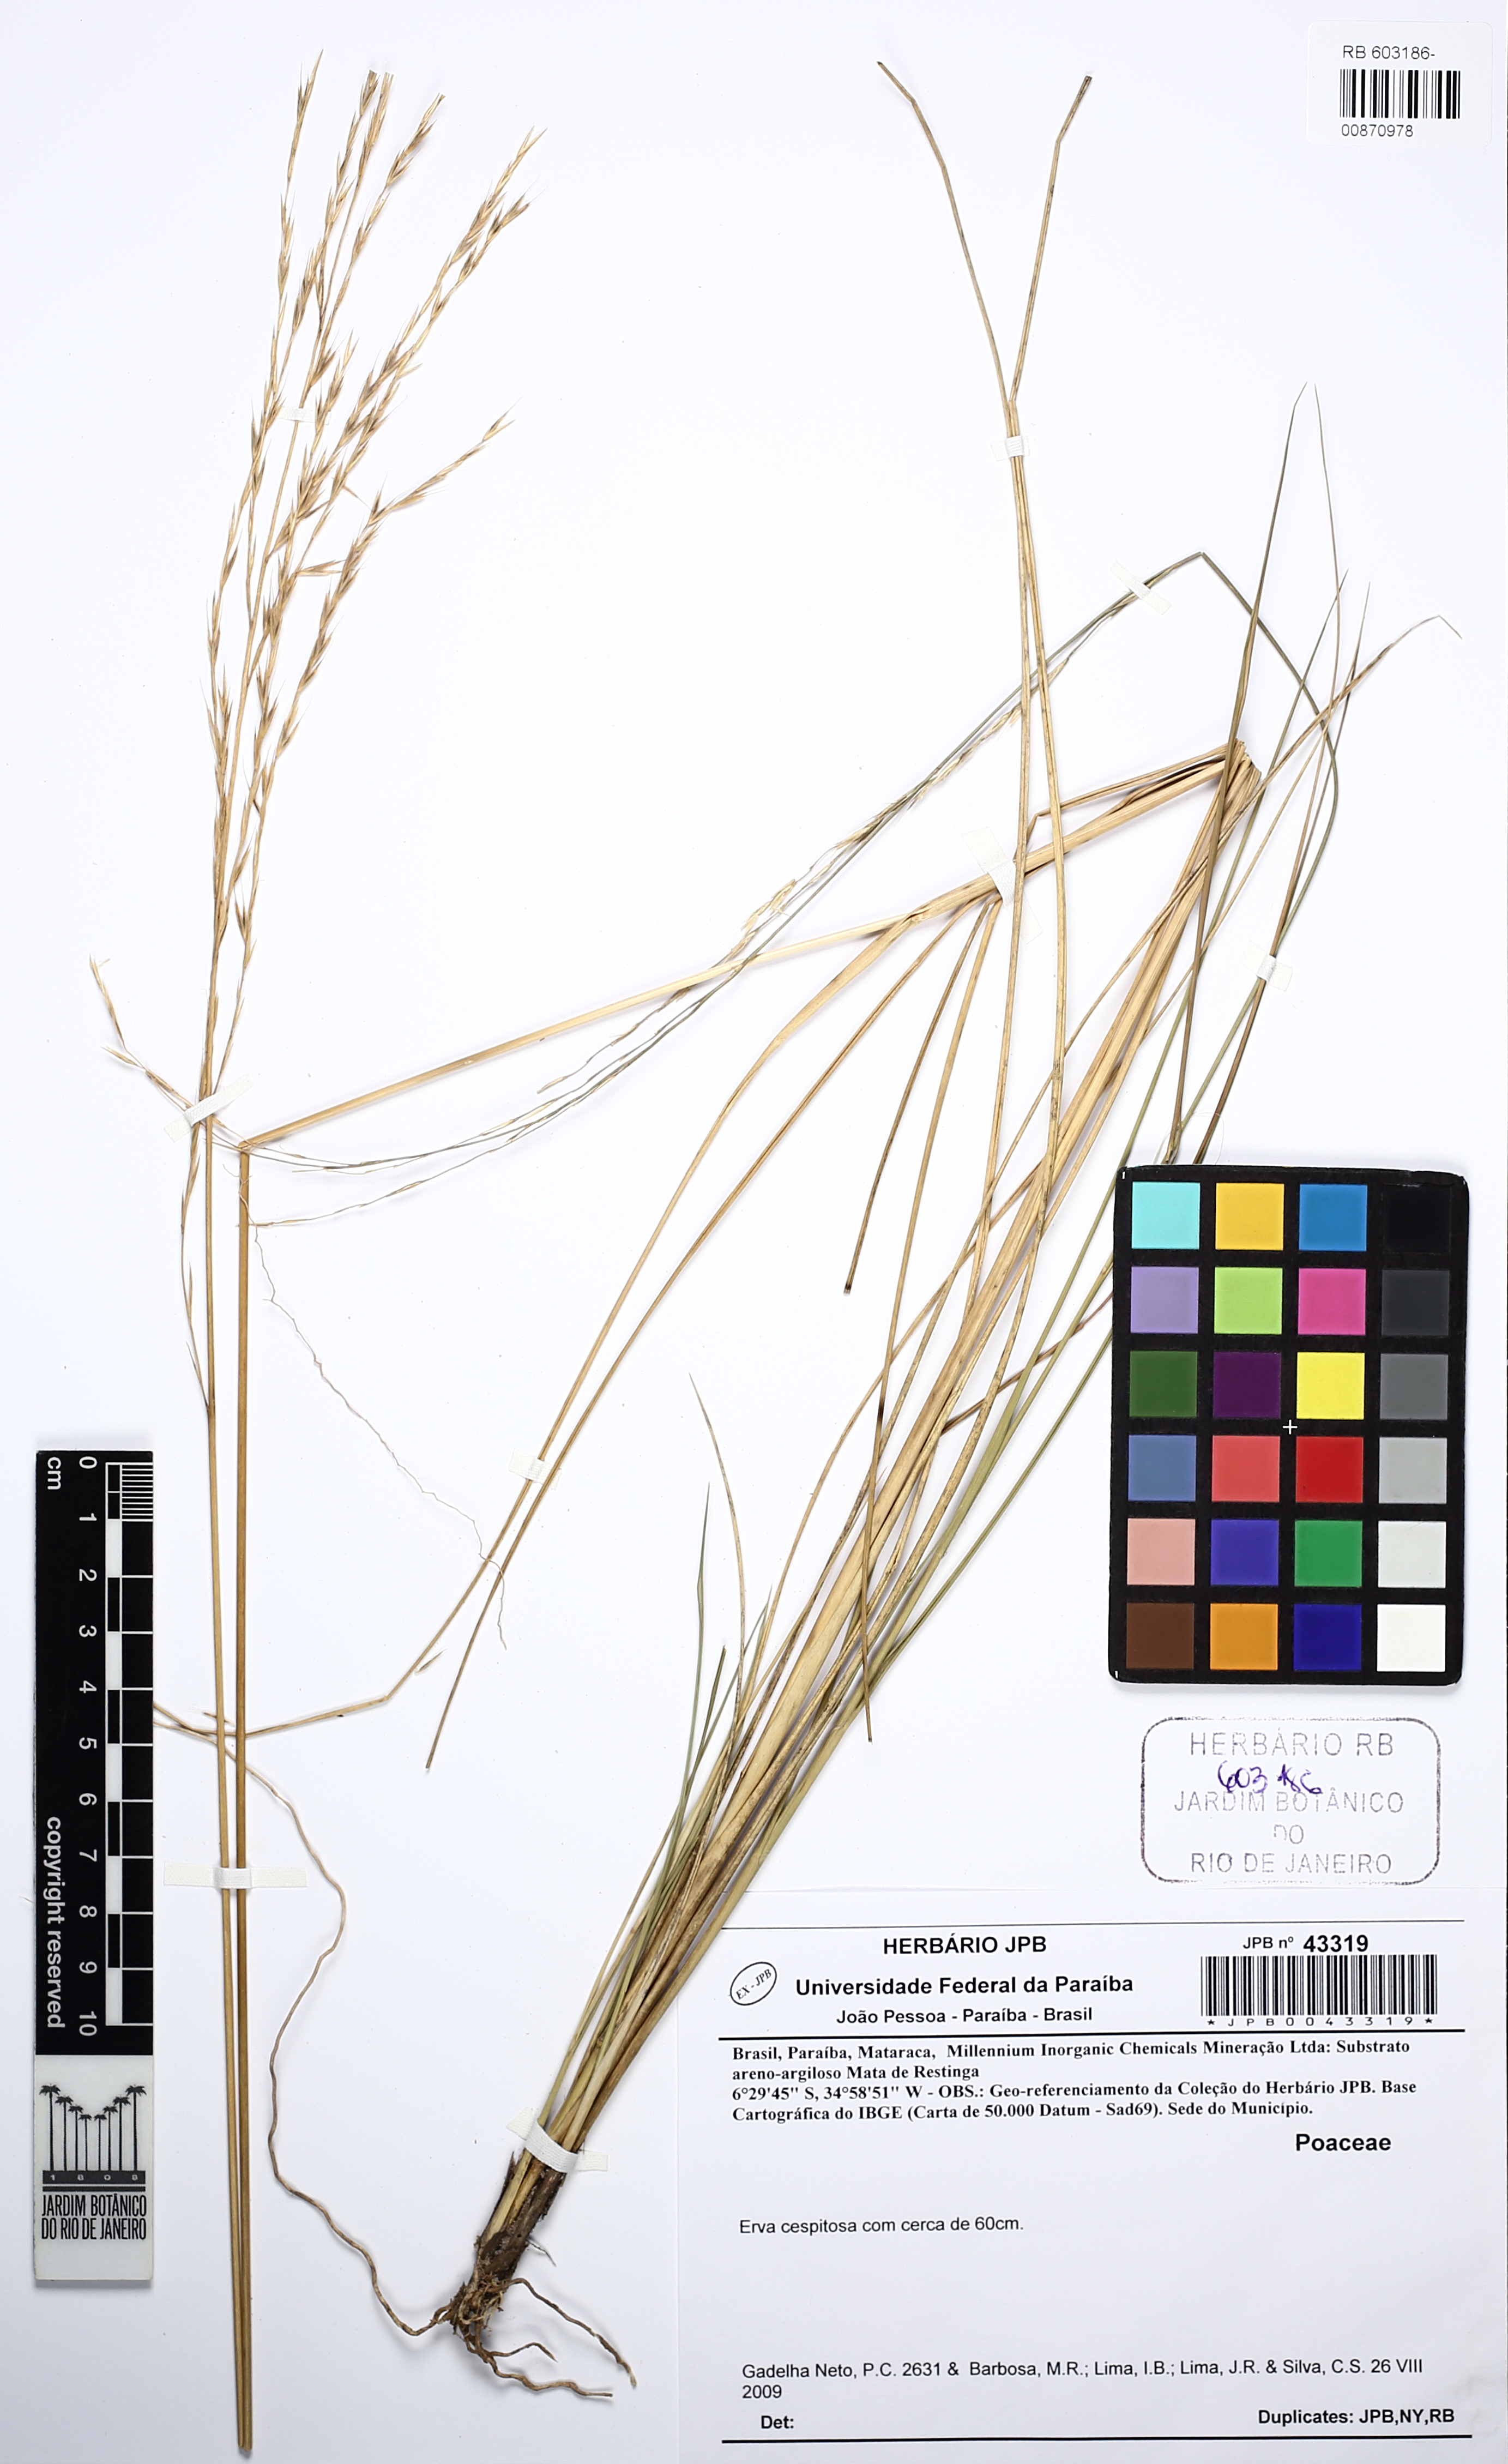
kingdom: Animalia
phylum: Mollusca
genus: Spartina
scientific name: Spartina
